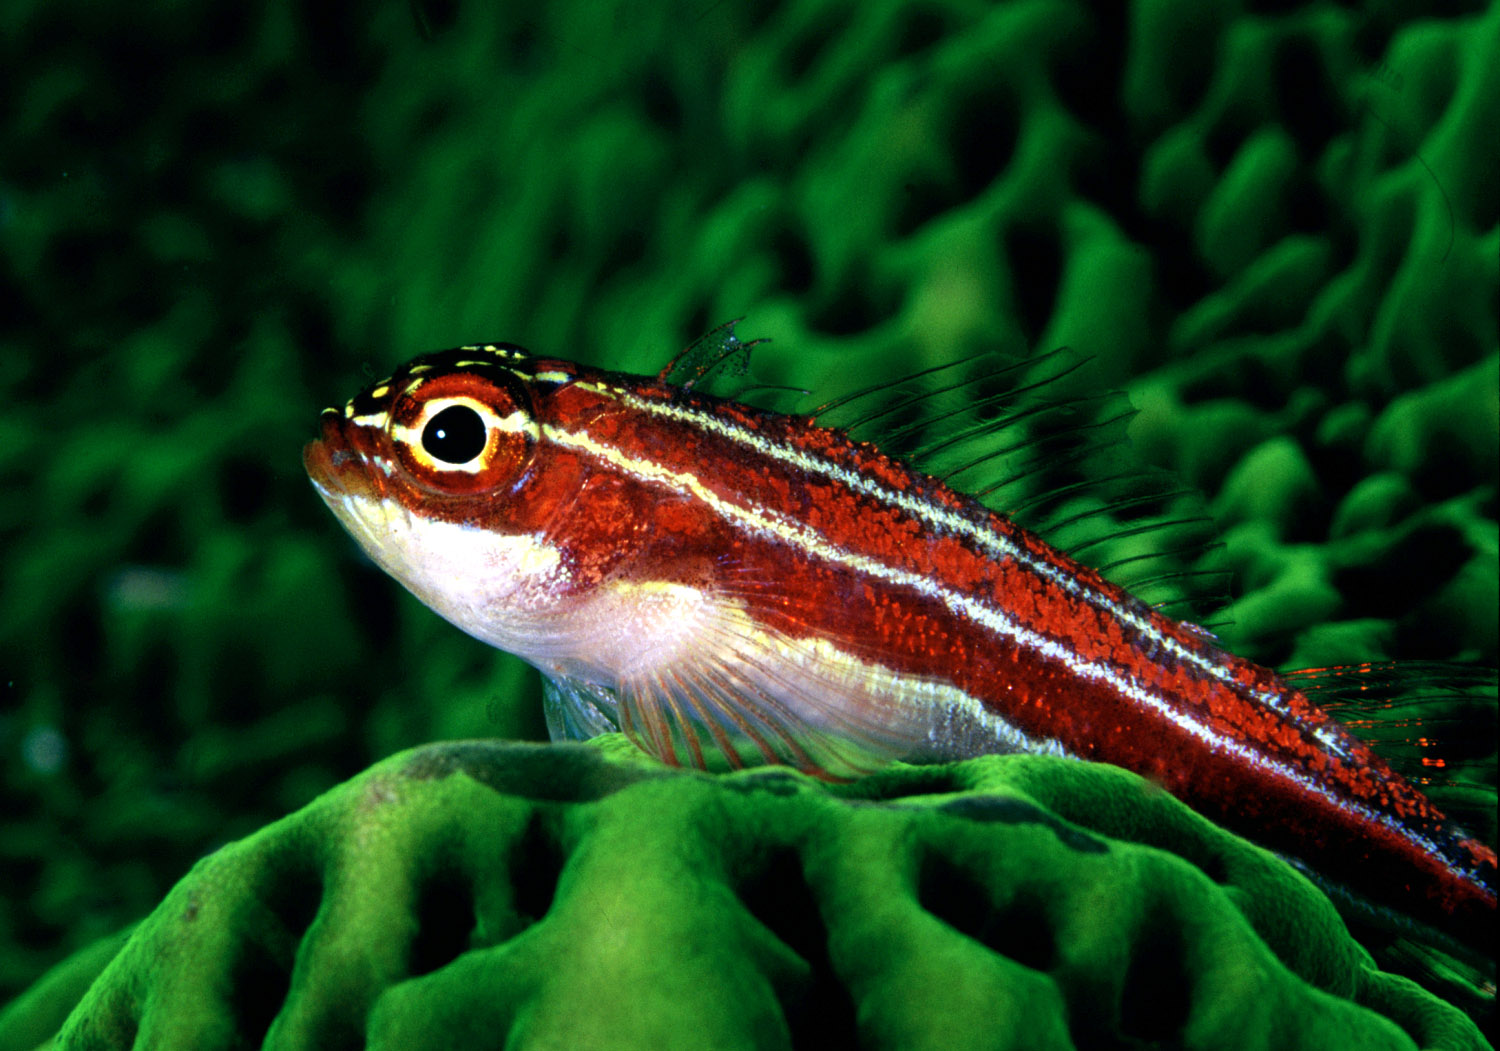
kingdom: Animalia
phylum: Chordata
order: Perciformes
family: Tripterygiidae
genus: Helcogramma
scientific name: Helcogramma striata
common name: Striped threefin
